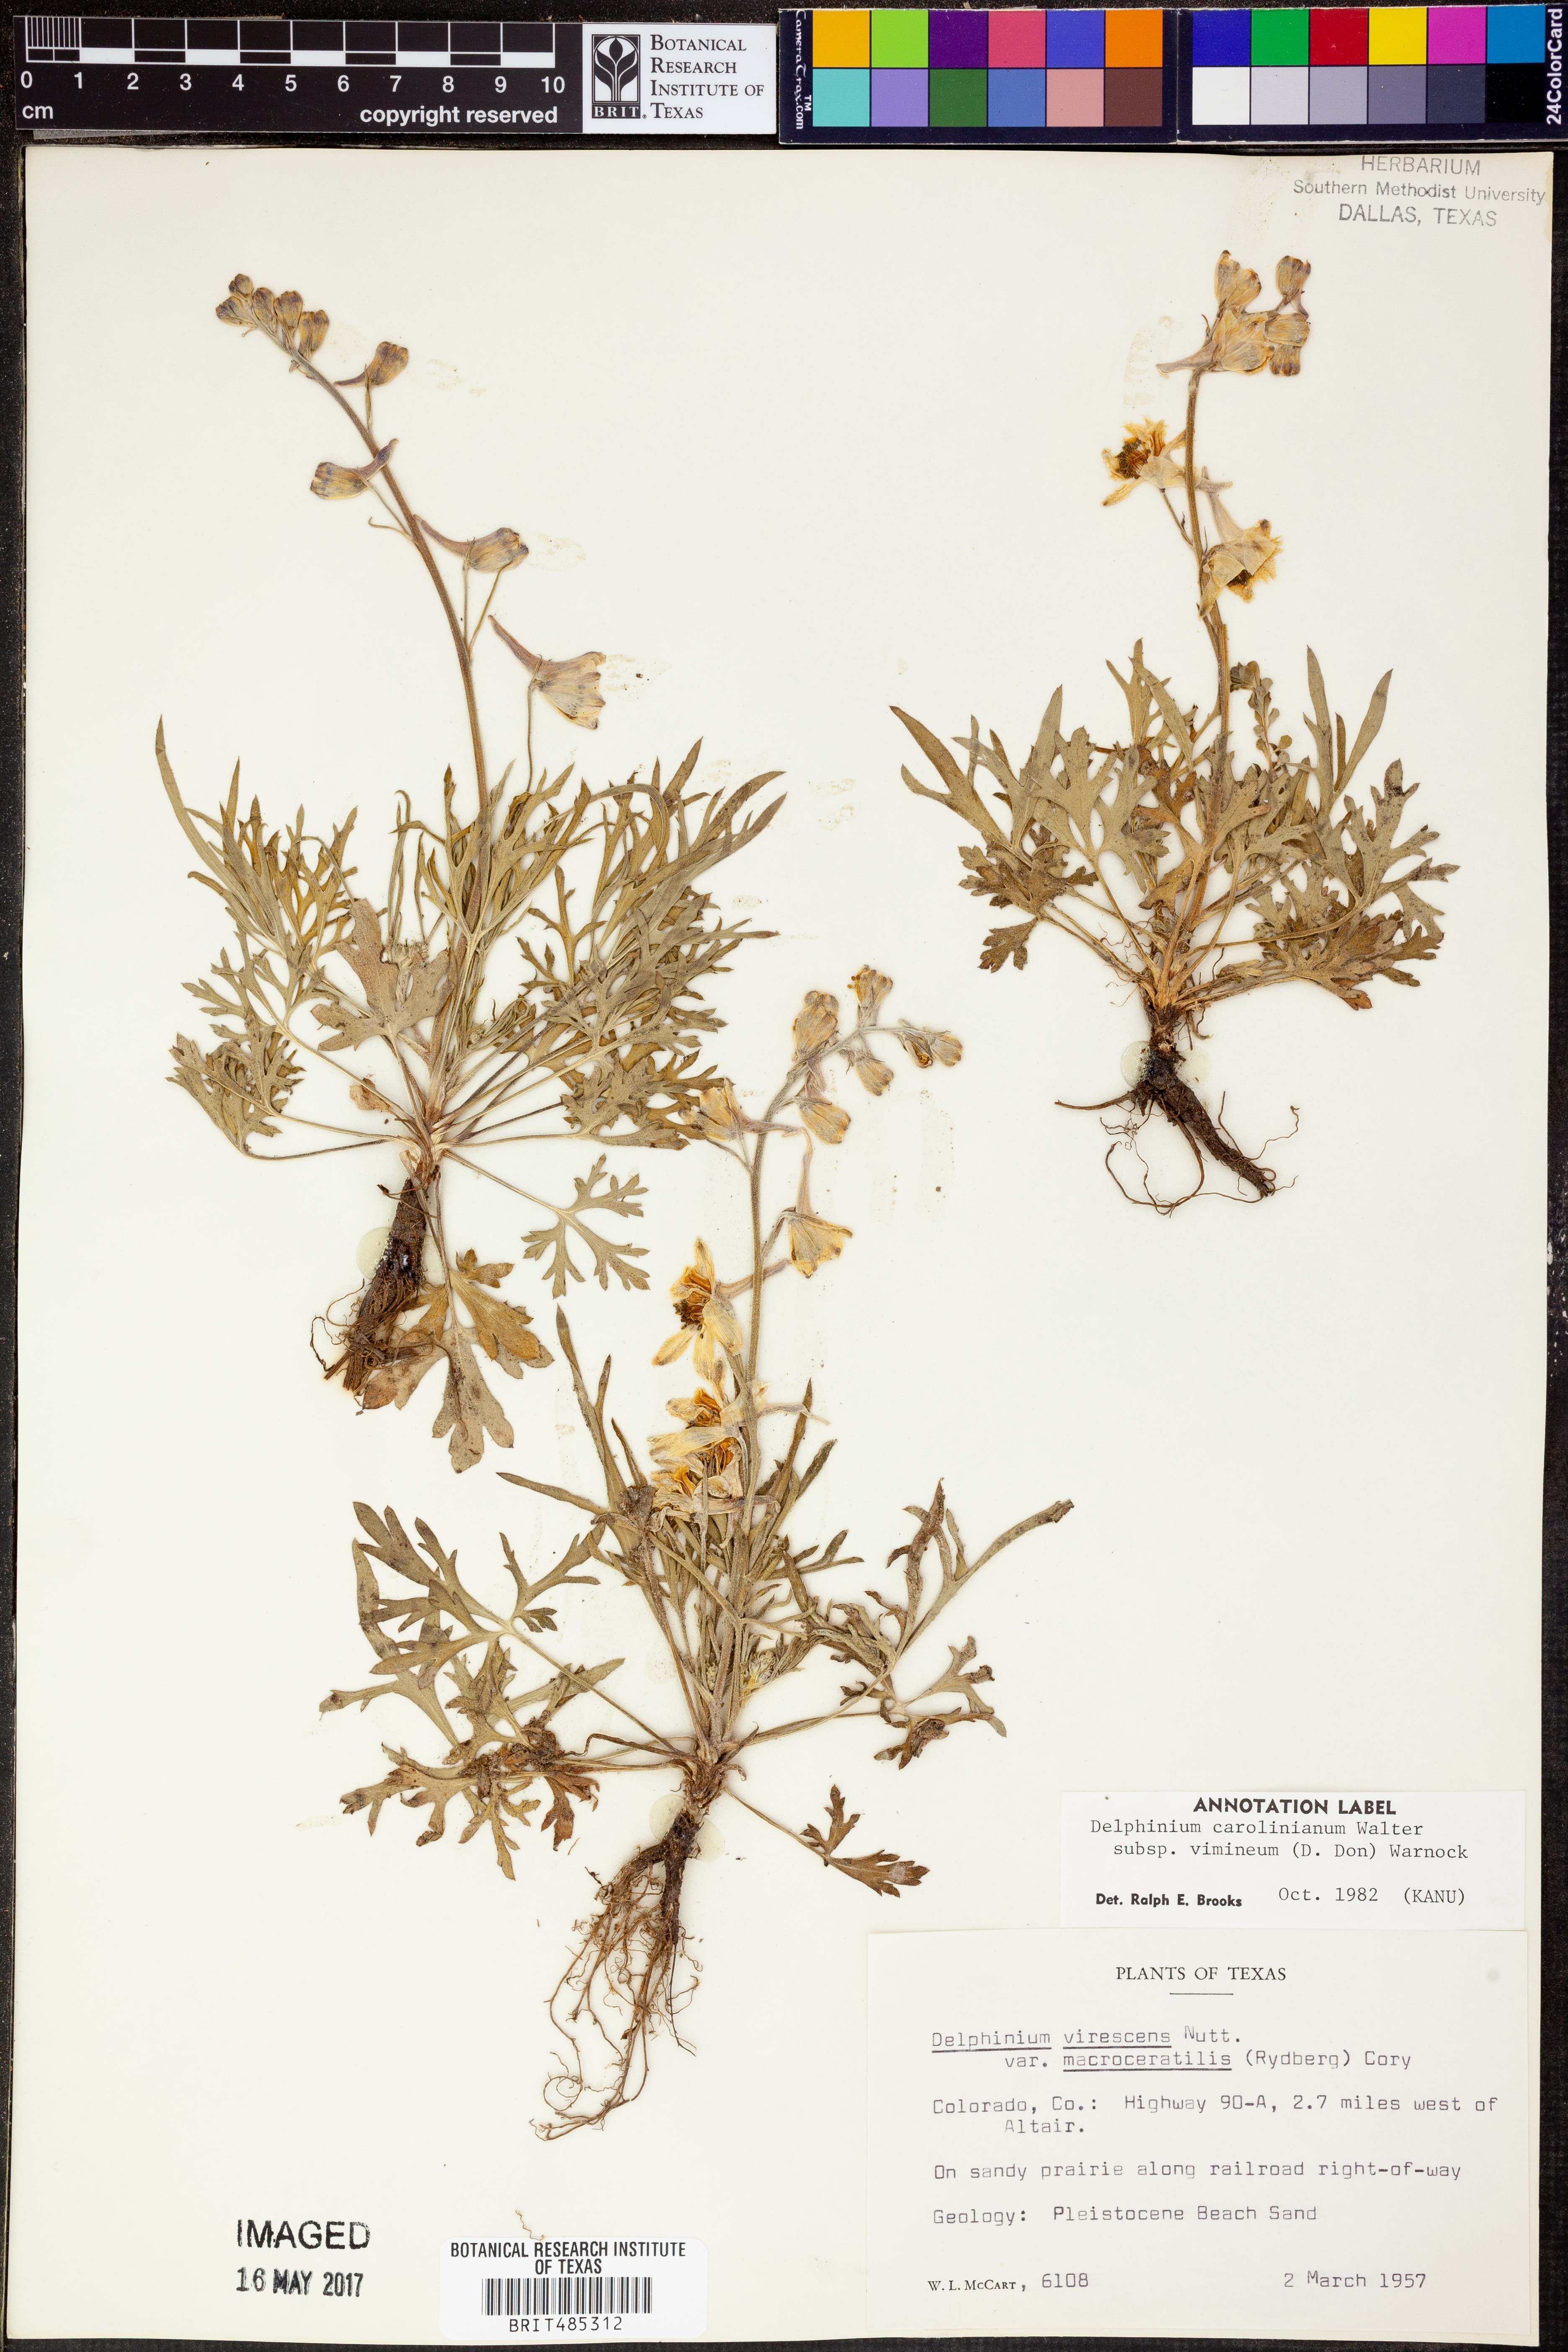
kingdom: Plantae
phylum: Tracheophyta
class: Magnoliopsida
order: Ranunculales
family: Ranunculaceae
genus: Delphinium
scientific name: Delphinium carolinianum
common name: Carolina larkspur
